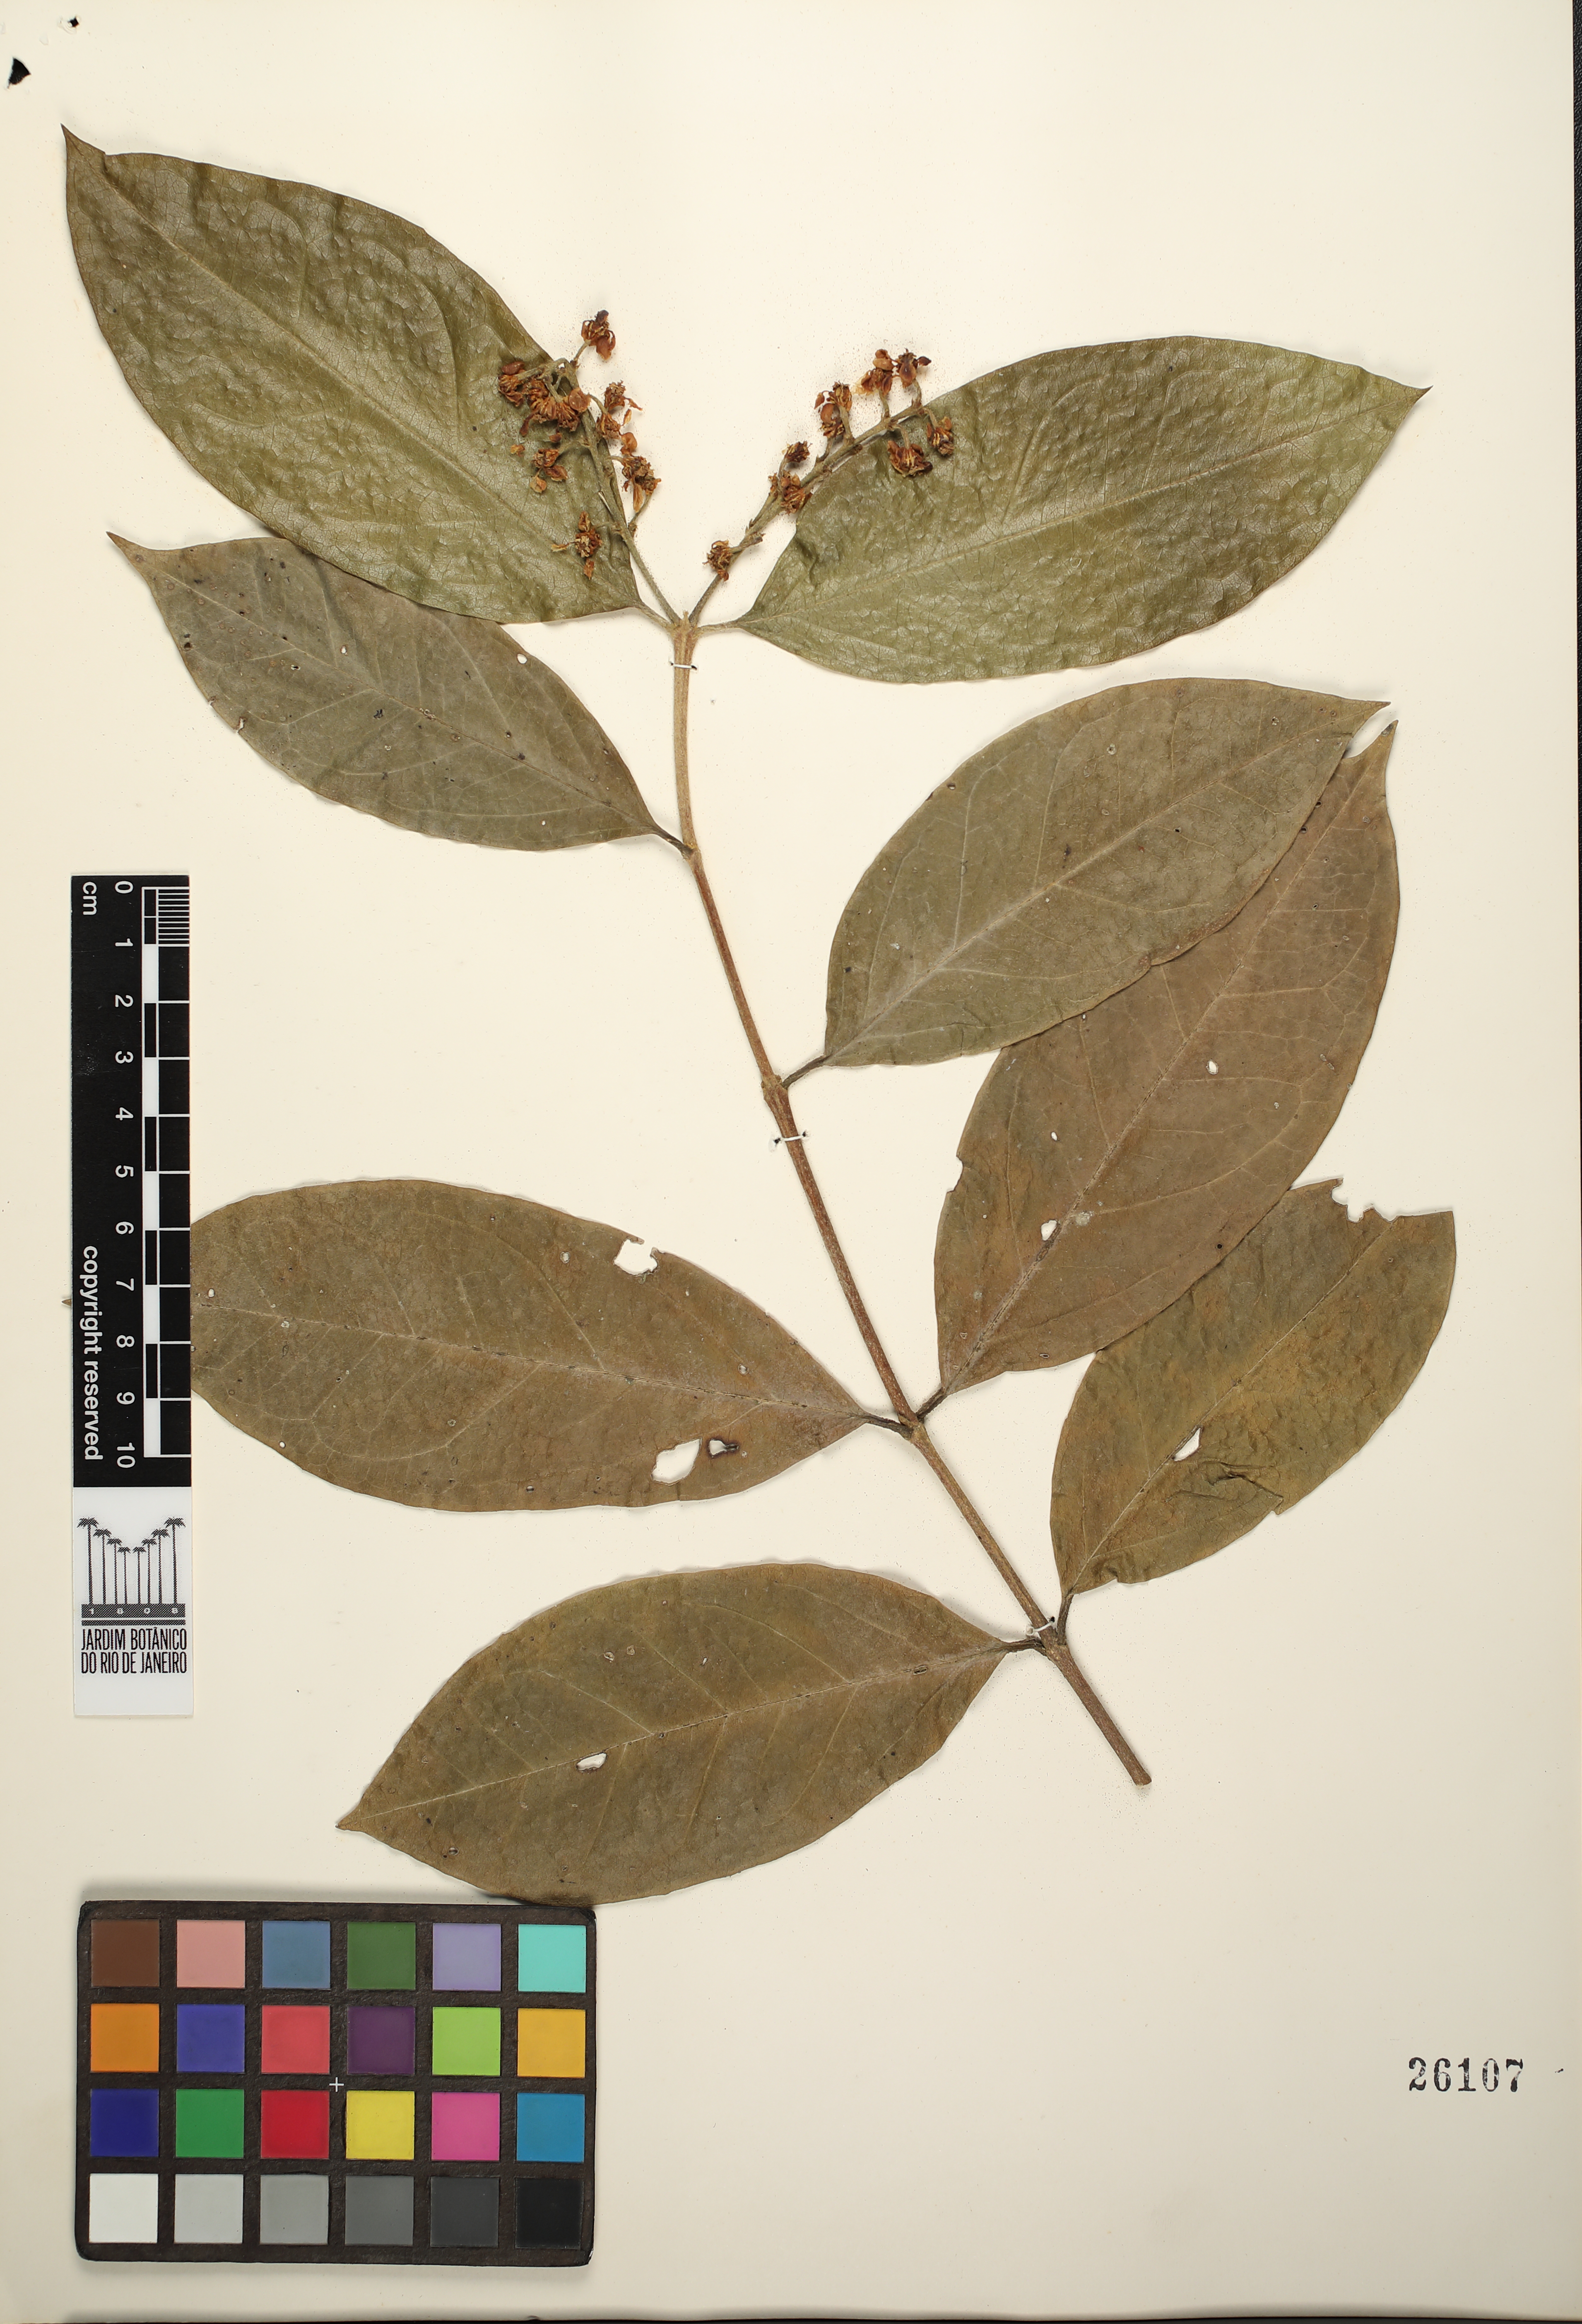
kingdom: Plantae
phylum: Tracheophyta
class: Magnoliopsida
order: Malpighiales
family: Malpighiaceae
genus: Bunchosia
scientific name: Bunchosia
